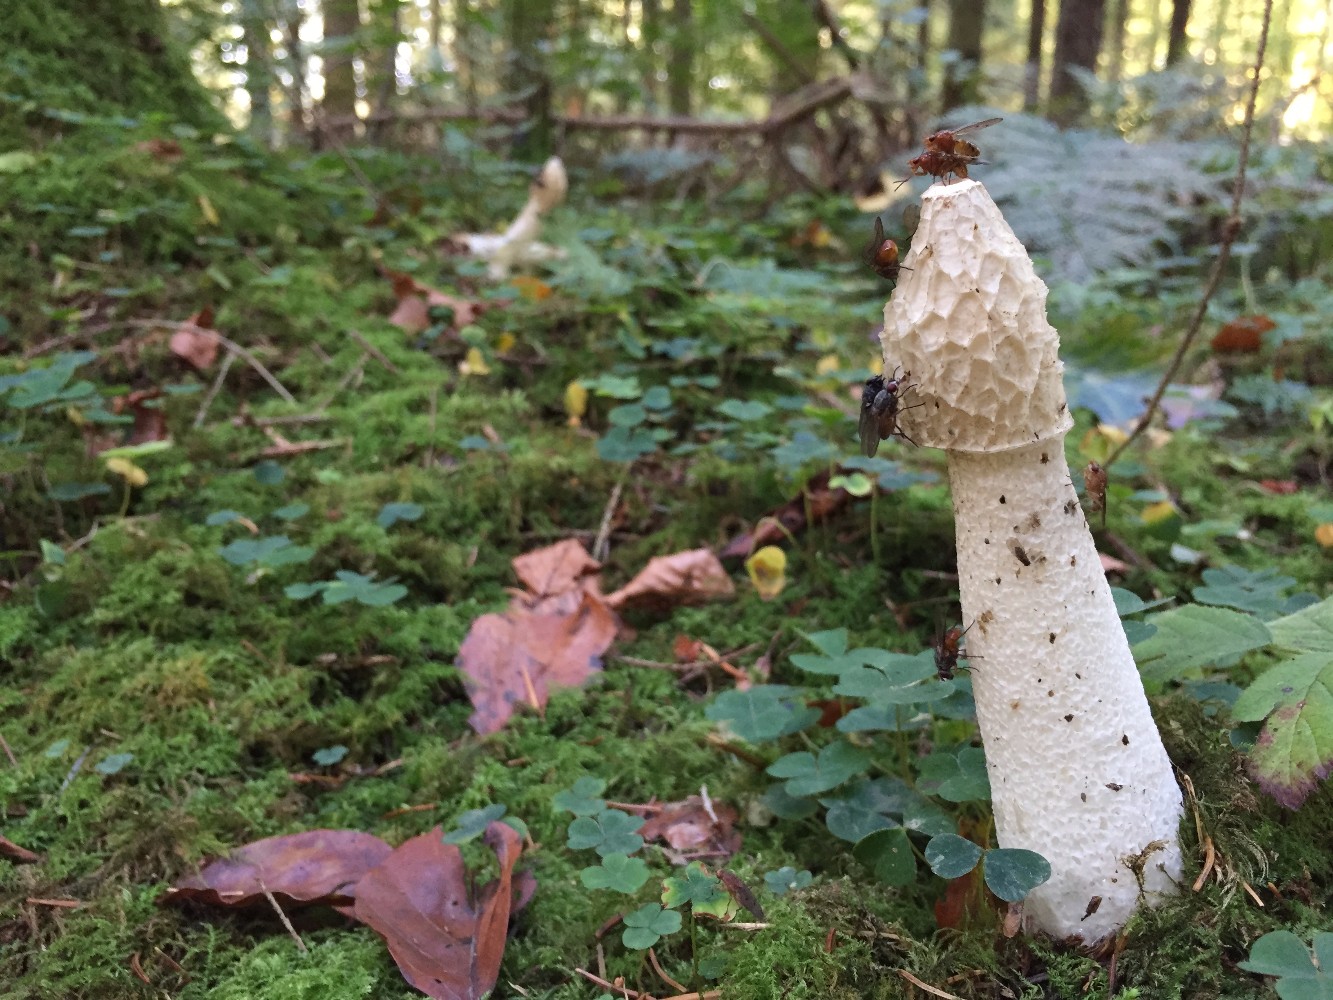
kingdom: Fungi
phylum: Basidiomycota
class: Agaricomycetes
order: Phallales
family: Phallaceae
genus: Phallus
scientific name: Phallus impudicus
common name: almindelig stinksvamp
